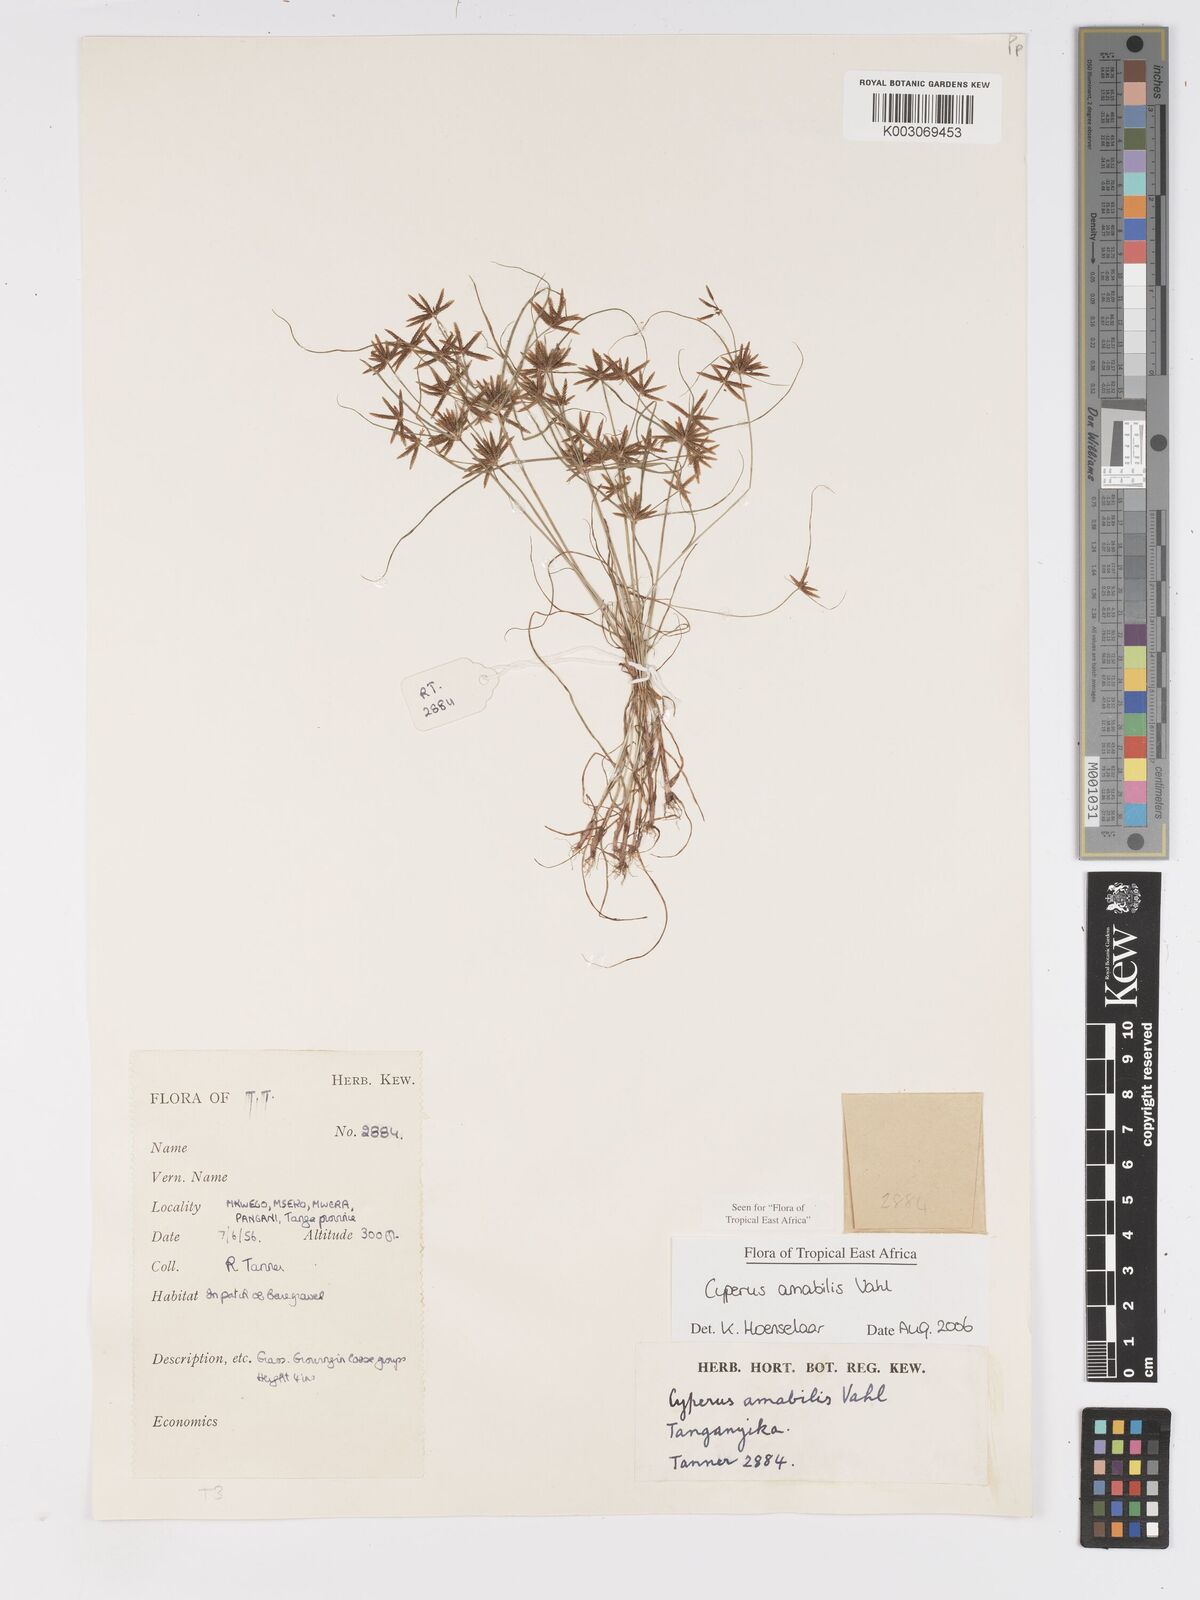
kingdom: Plantae
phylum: Tracheophyta
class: Liliopsida
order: Poales
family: Cyperaceae
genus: Cyperus
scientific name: Cyperus amabilis
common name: Foothill flat sedge
